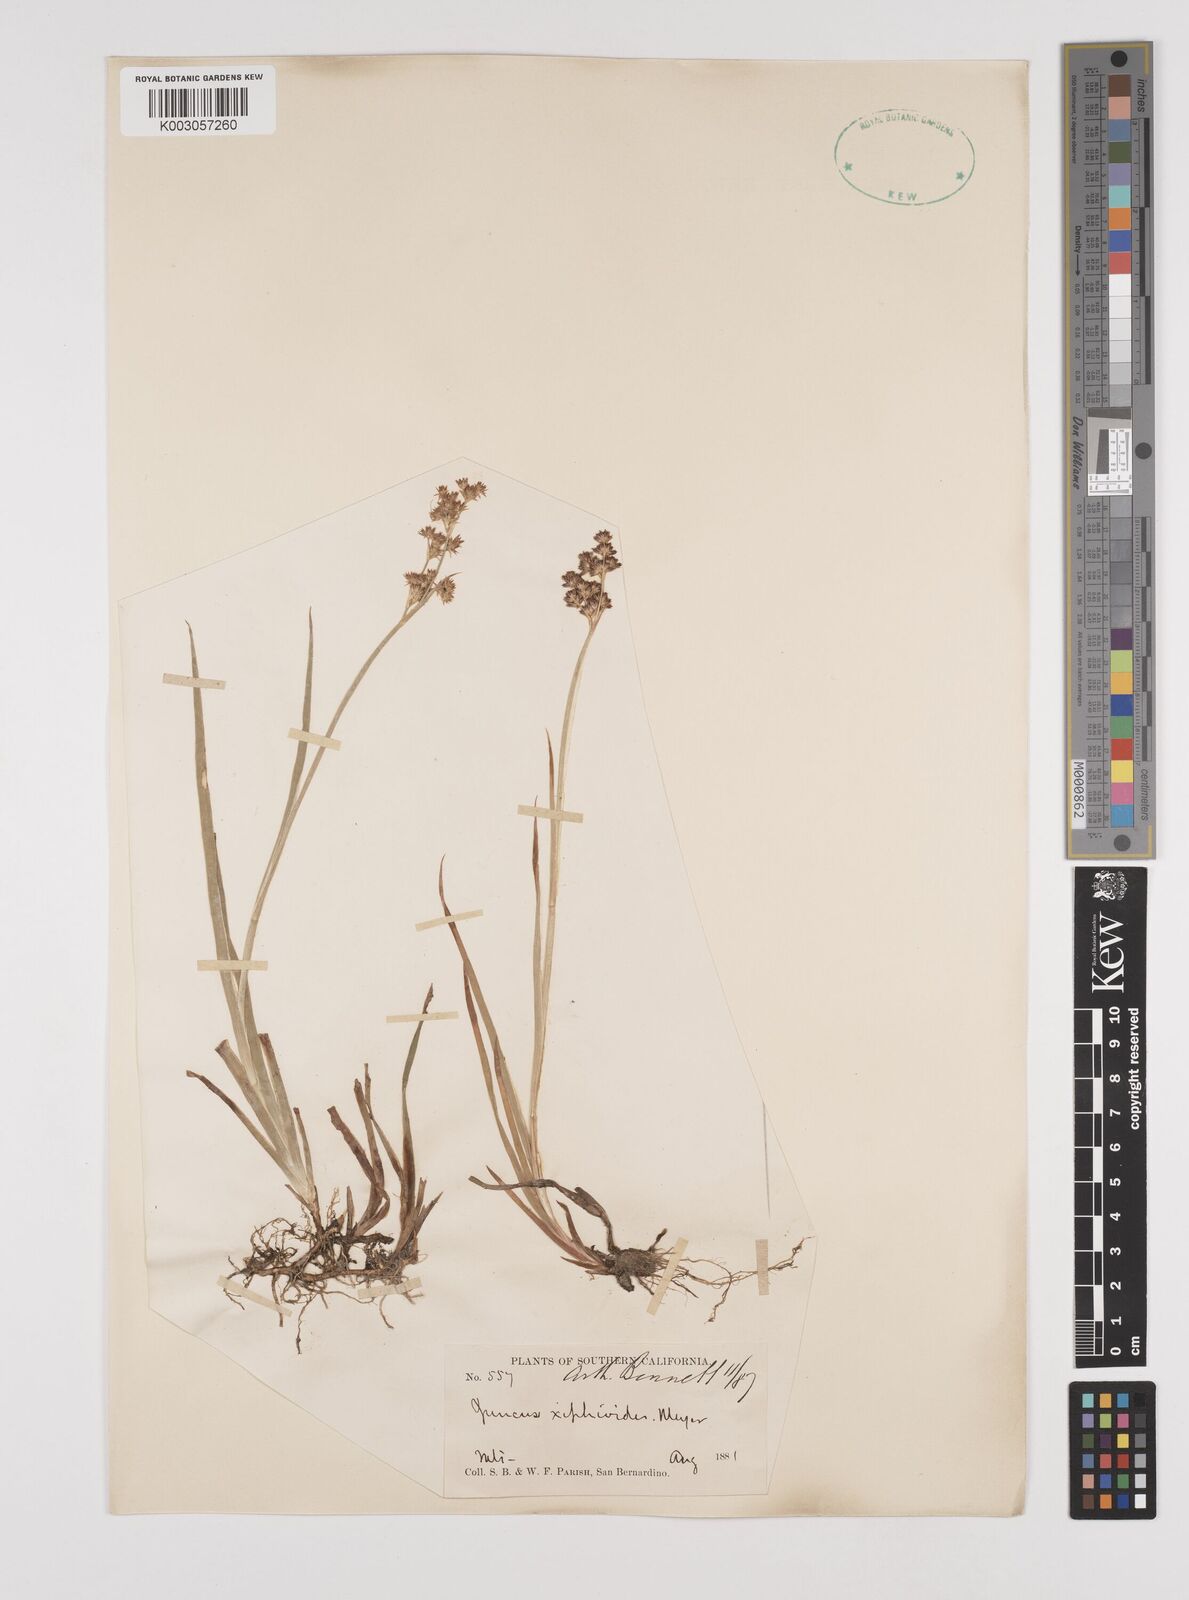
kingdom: Plantae
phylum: Tracheophyta
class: Liliopsida
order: Poales
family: Juncaceae
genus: Juncus
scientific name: Juncus xiphioides
